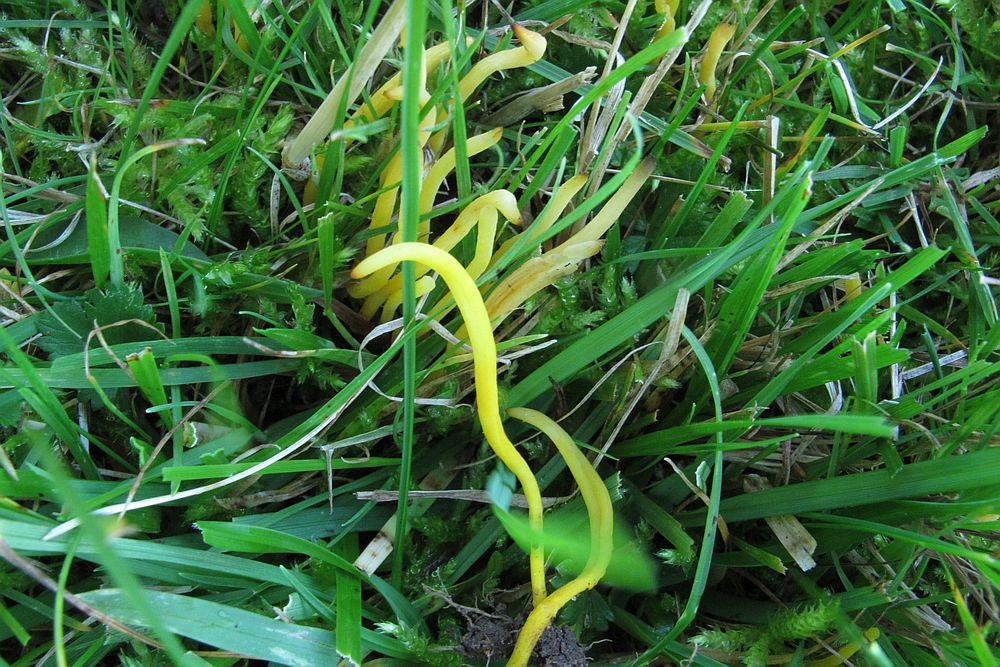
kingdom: Fungi
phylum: Basidiomycota
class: Agaricomycetes
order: Agaricales
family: Clavariaceae
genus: Clavulinopsis
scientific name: Clavulinopsis laeticolor
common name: flamme-køllesvamp
